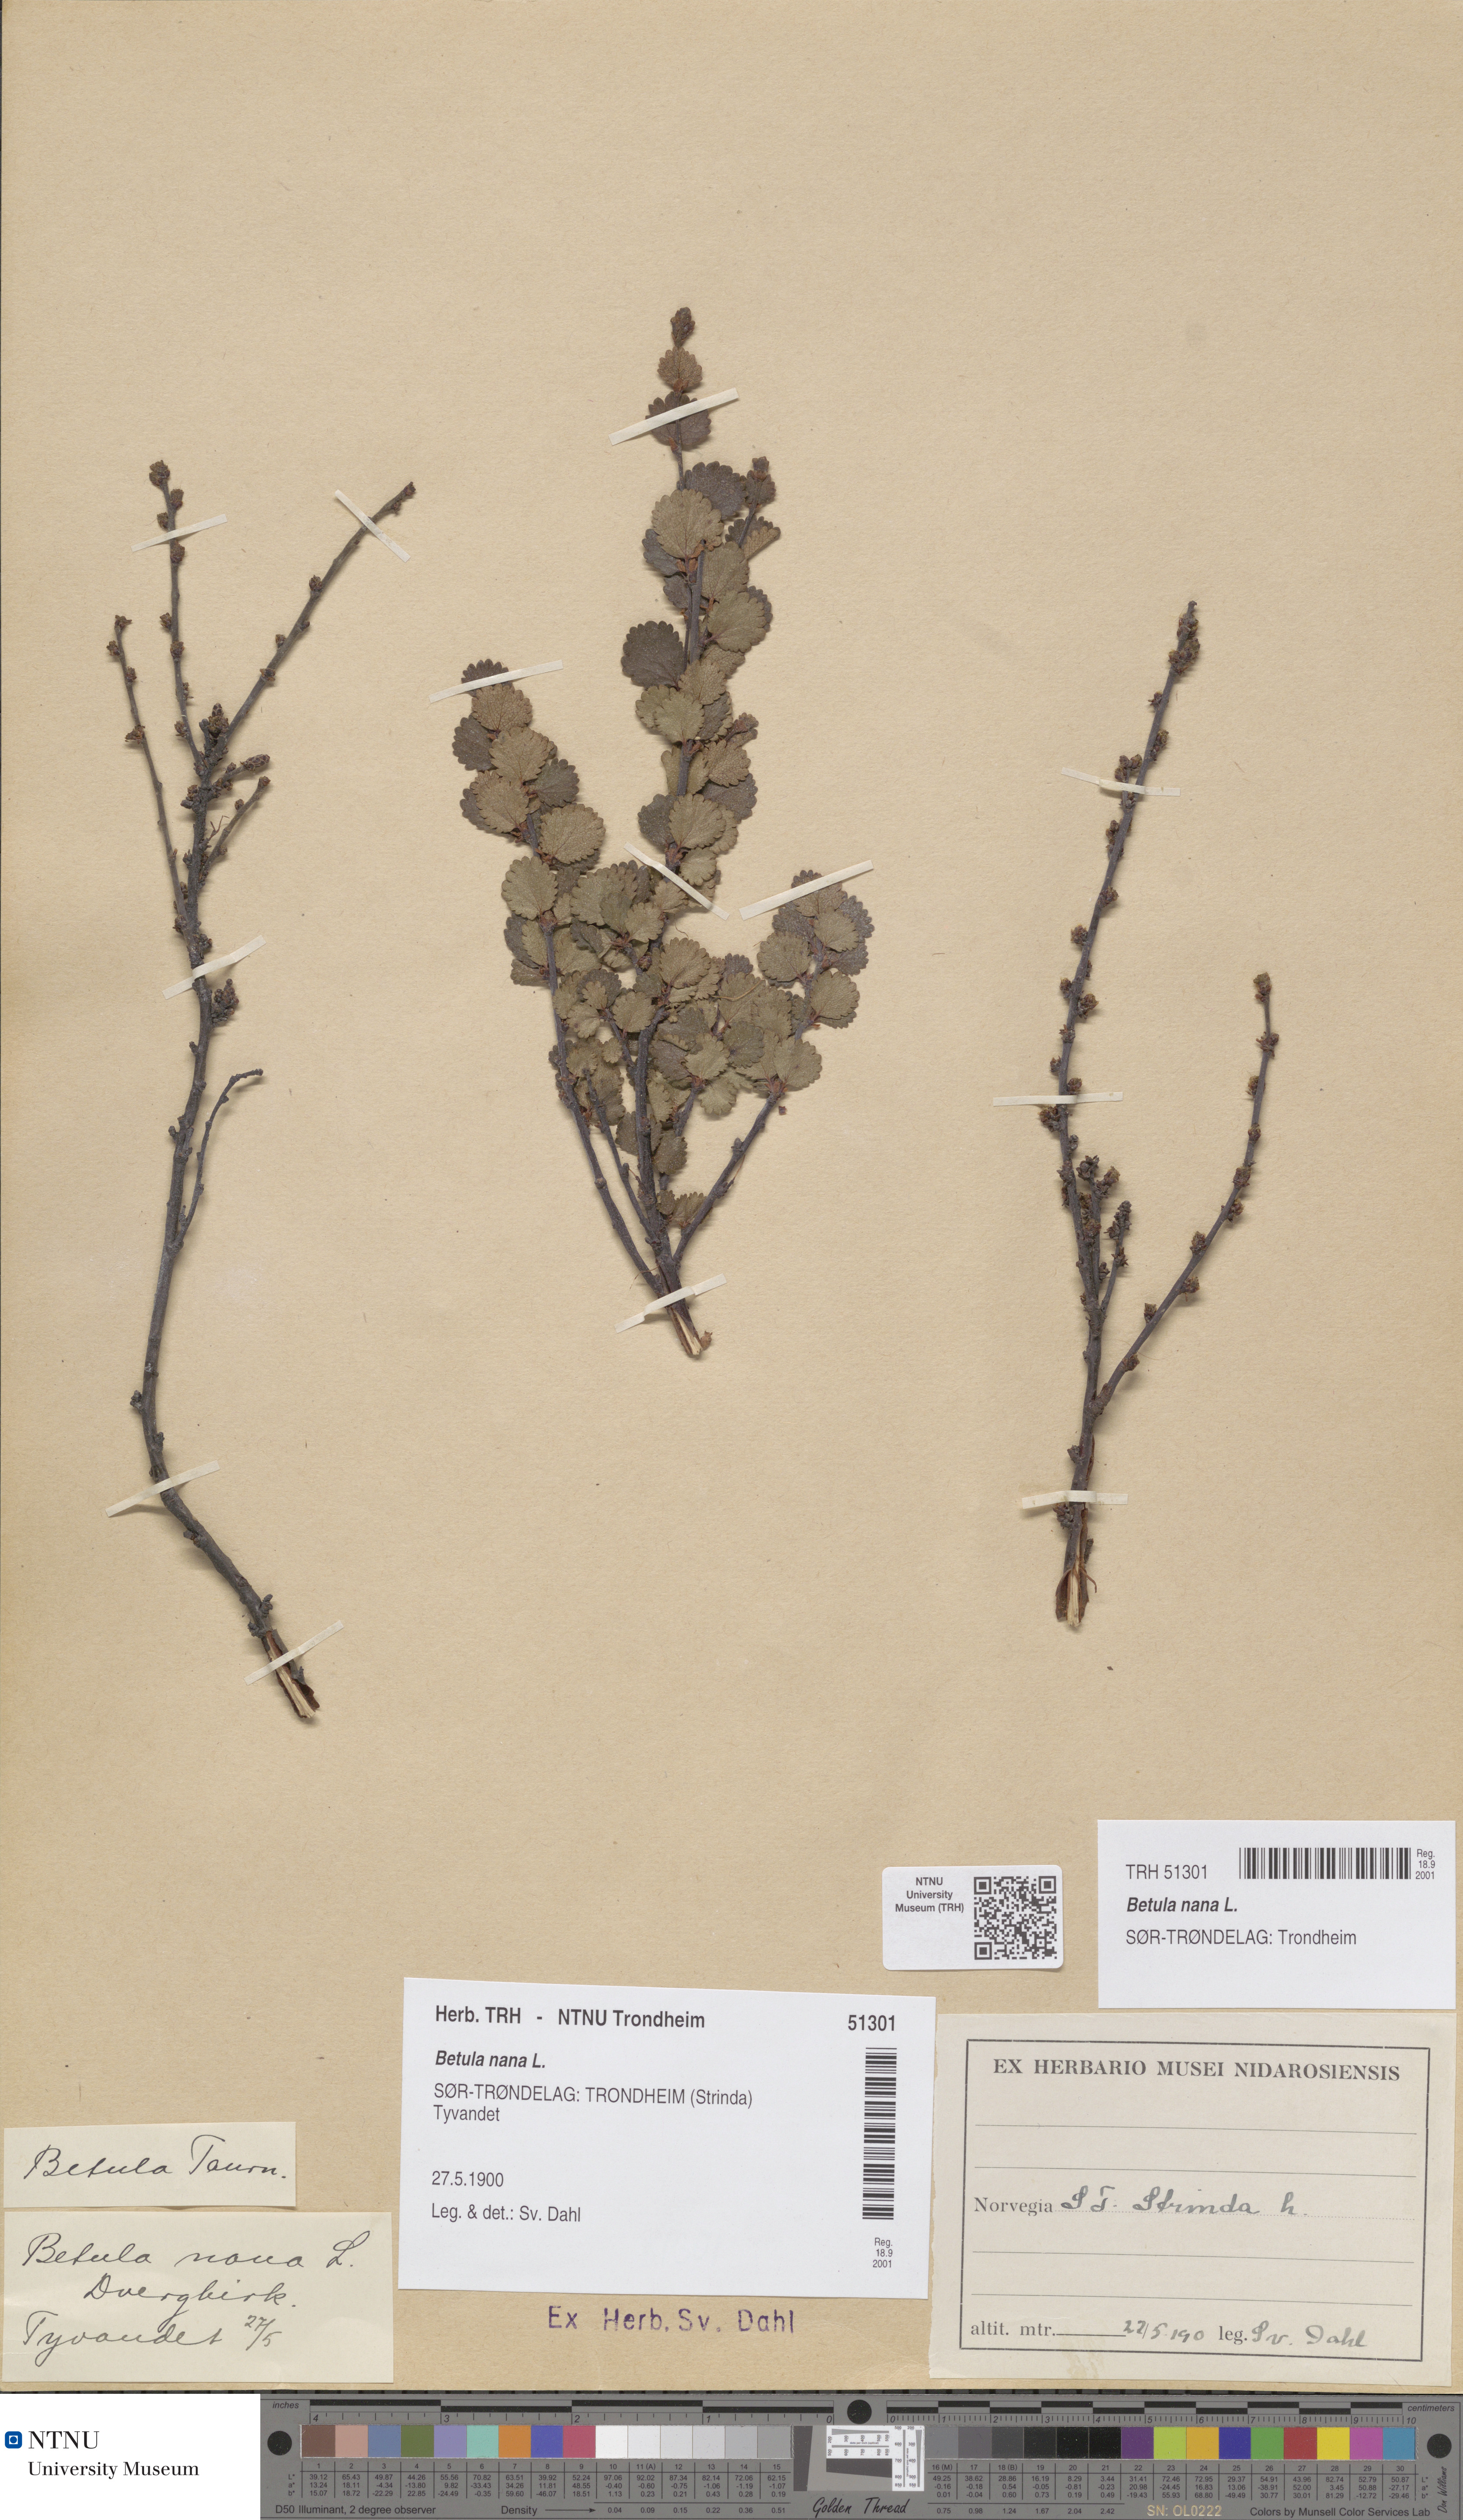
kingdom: Plantae
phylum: Tracheophyta
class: Magnoliopsida
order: Fagales
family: Betulaceae
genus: Betula
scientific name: Betula nana
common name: Arctic dwarf birch
